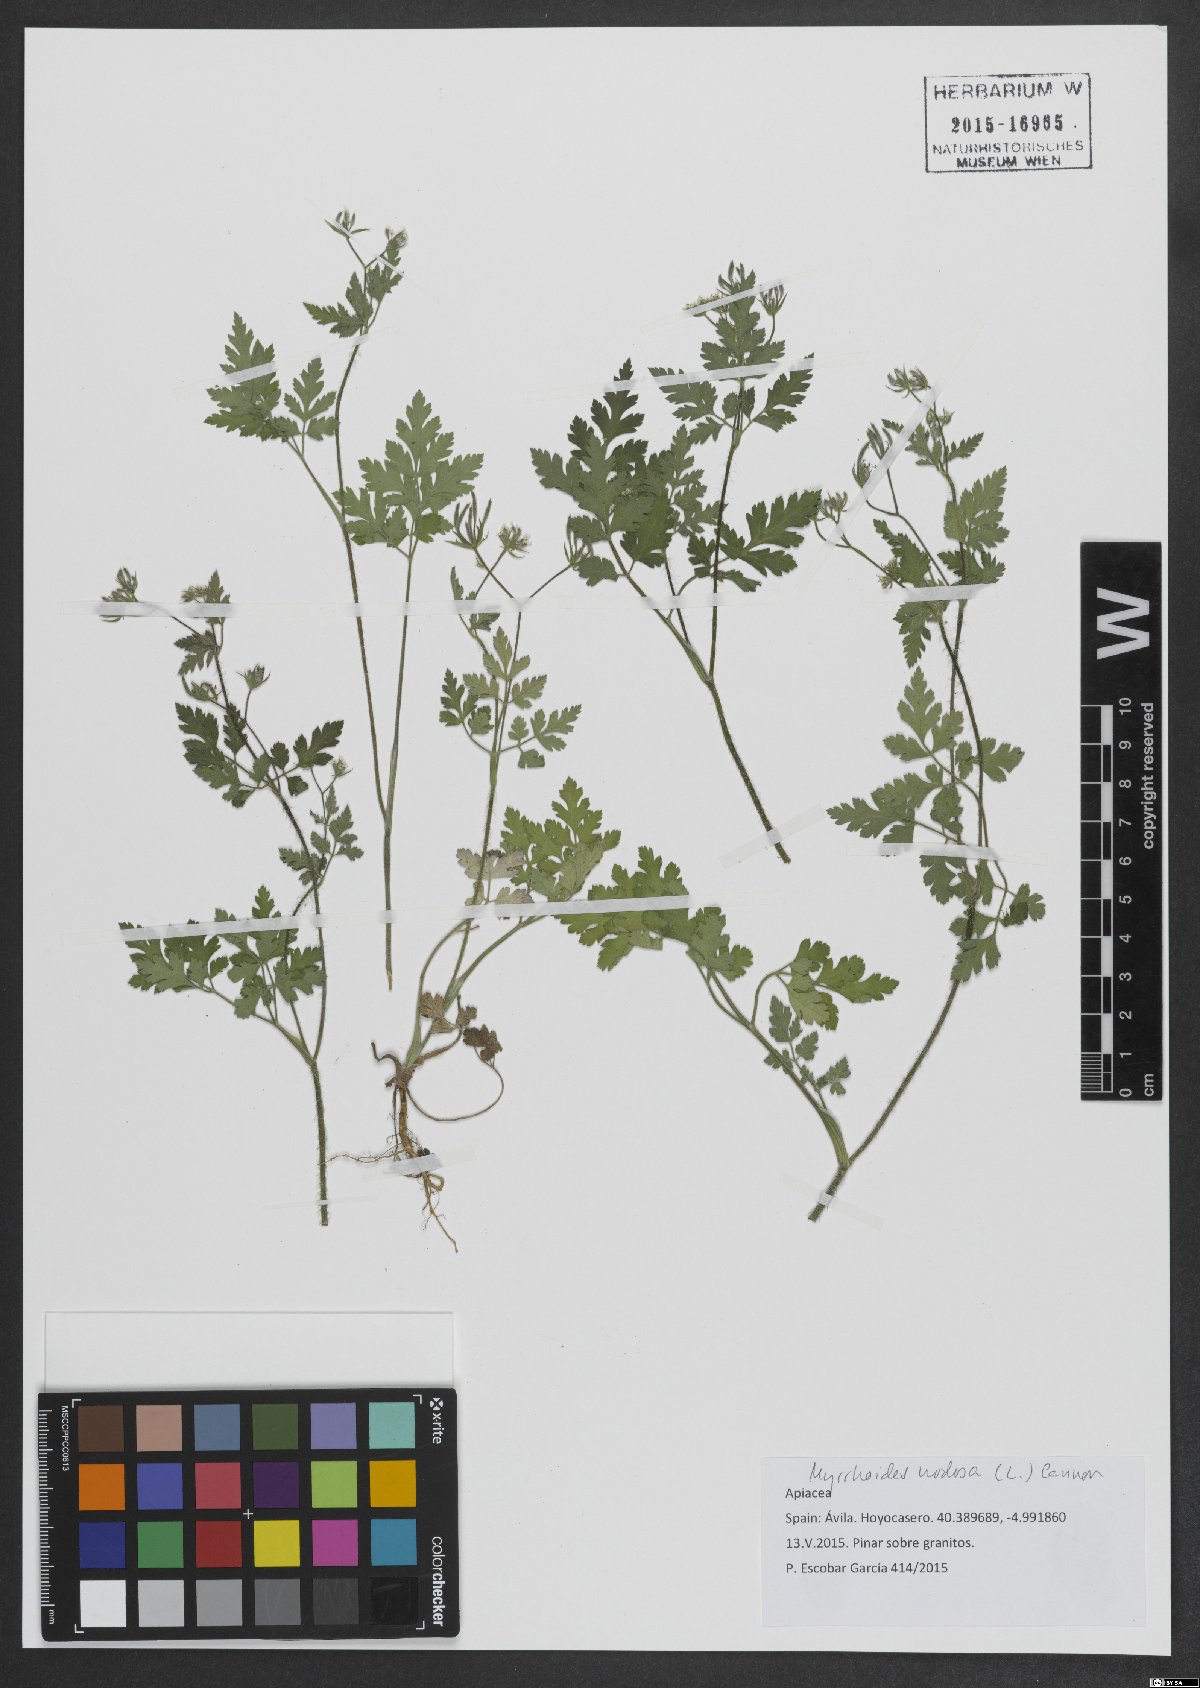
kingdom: Plantae
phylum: Tracheophyta
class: Magnoliopsida
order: Apiales
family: Apiaceae
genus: Chaerophyllum
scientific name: Chaerophyllum nodosum
